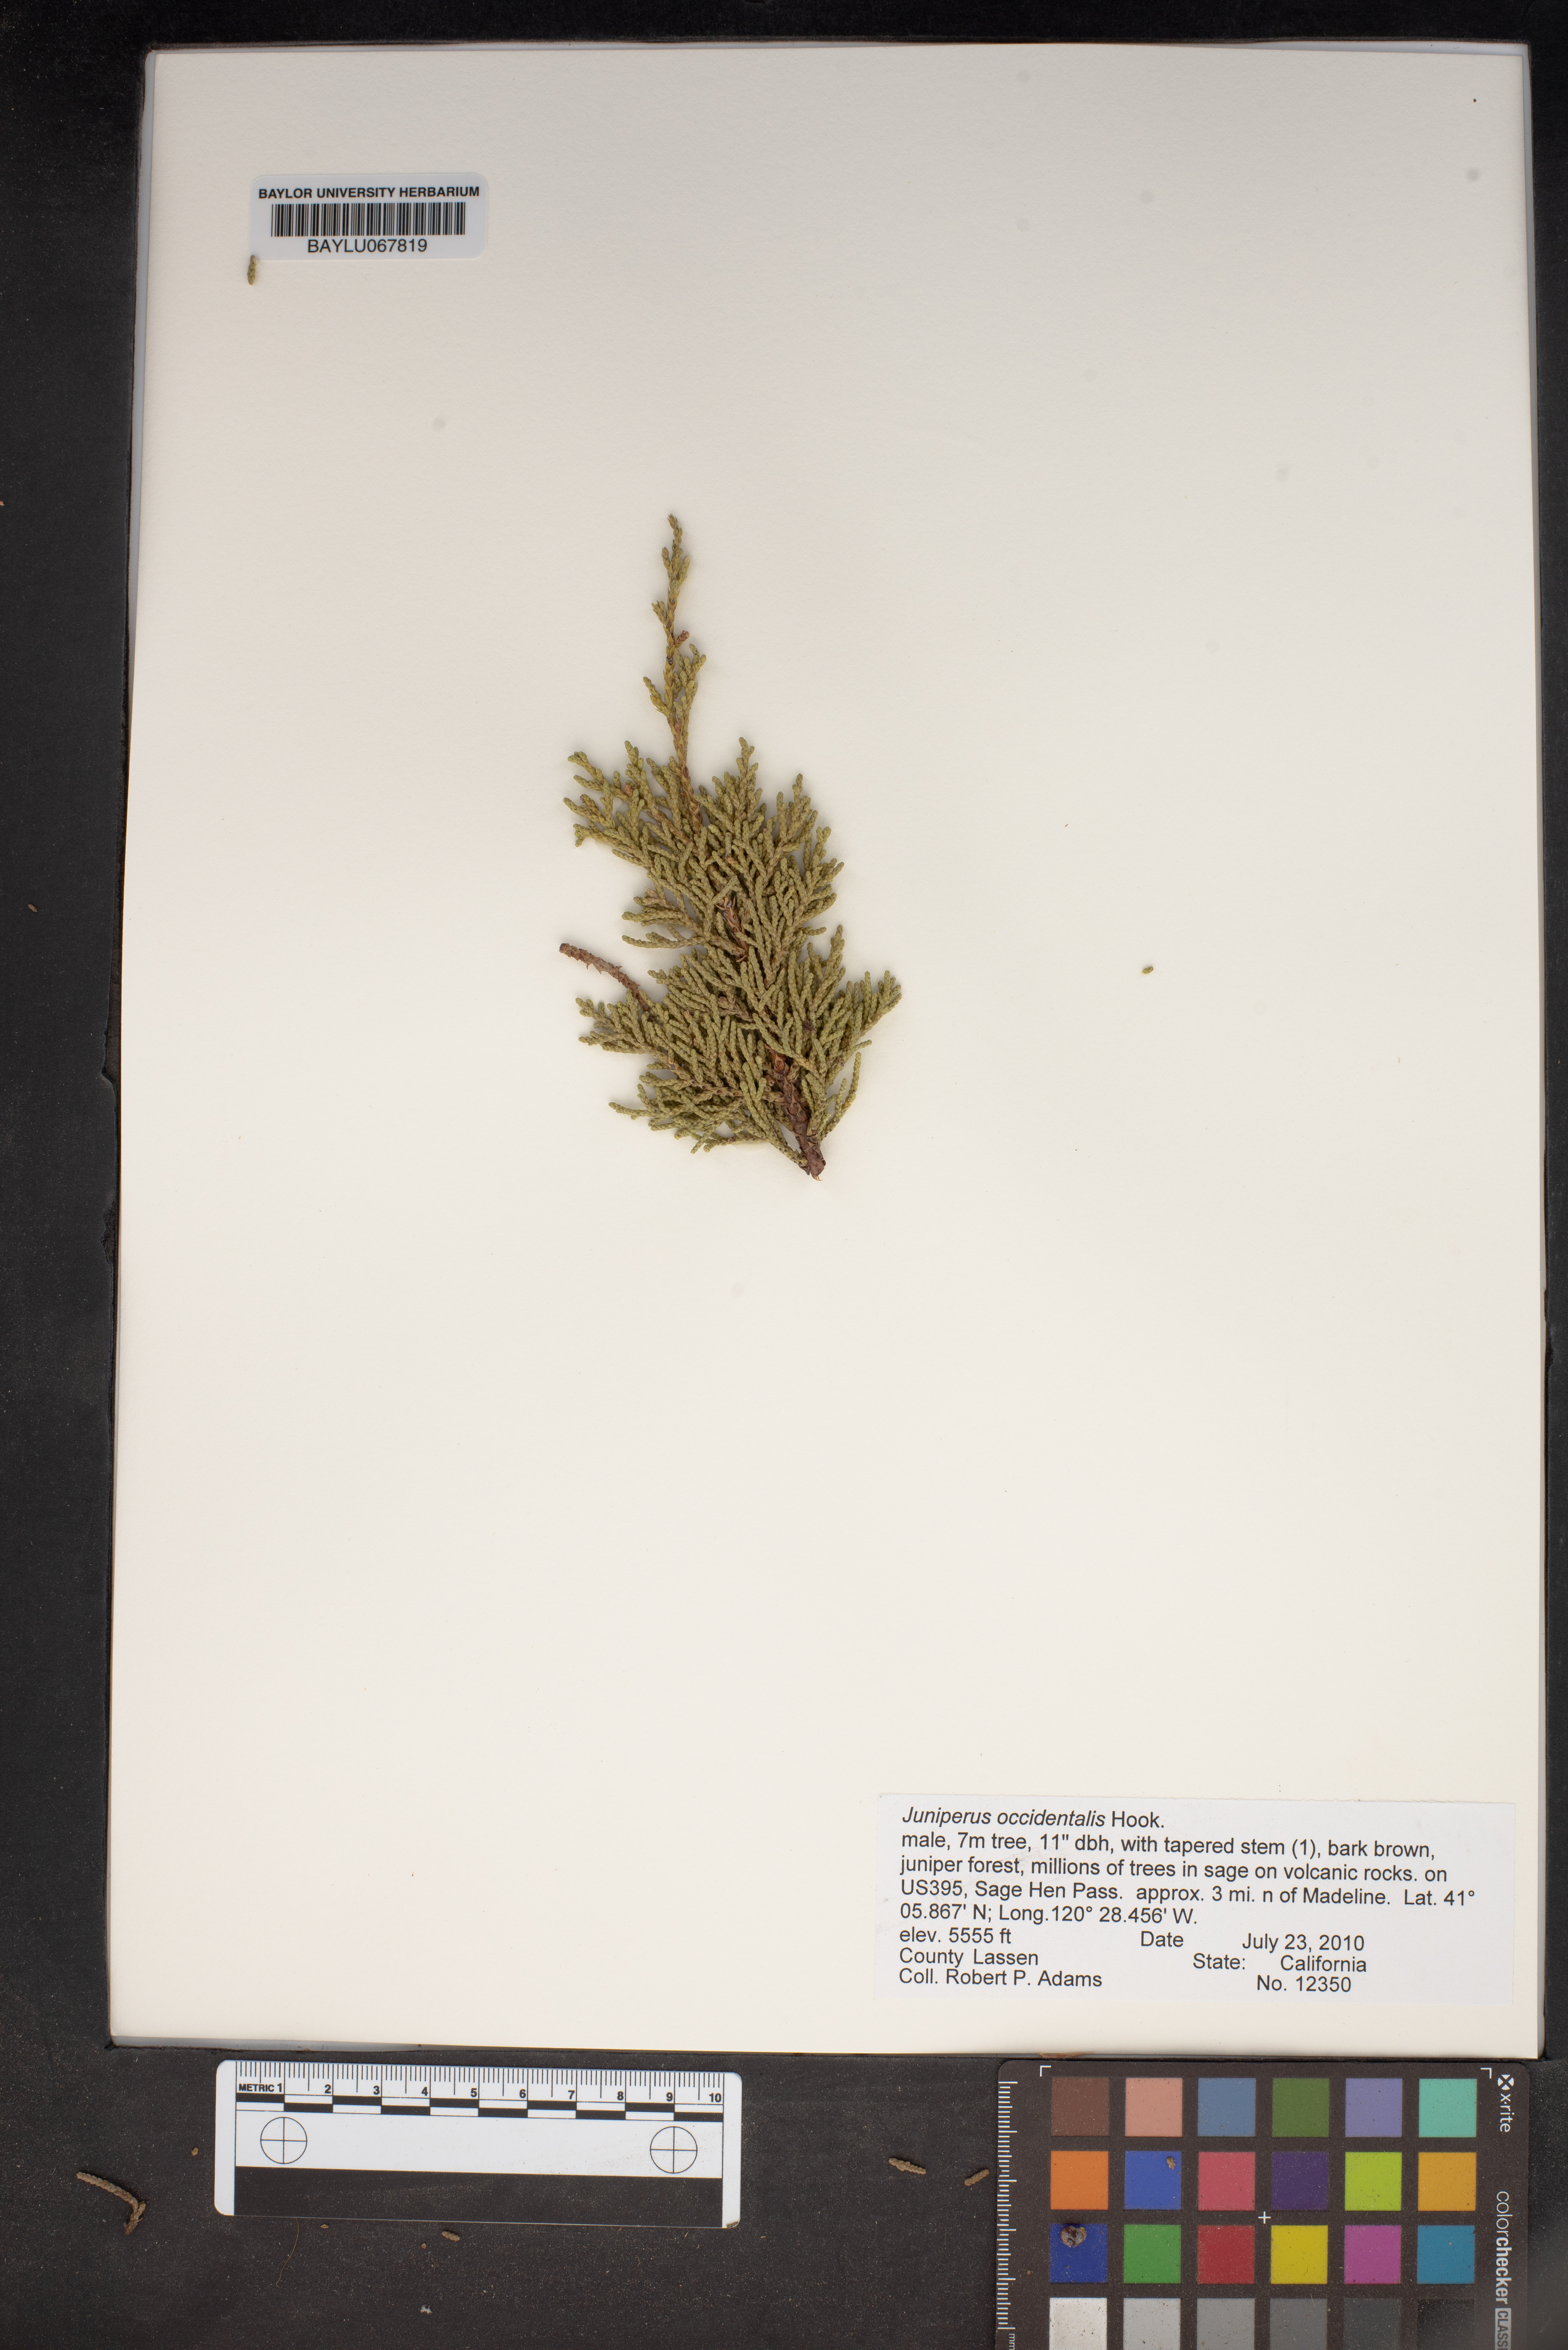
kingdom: Plantae
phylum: Tracheophyta
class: Pinopsida
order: Pinales
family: Cupressaceae
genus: Juniperus
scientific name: Juniperus occidentalis
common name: Western juniper
